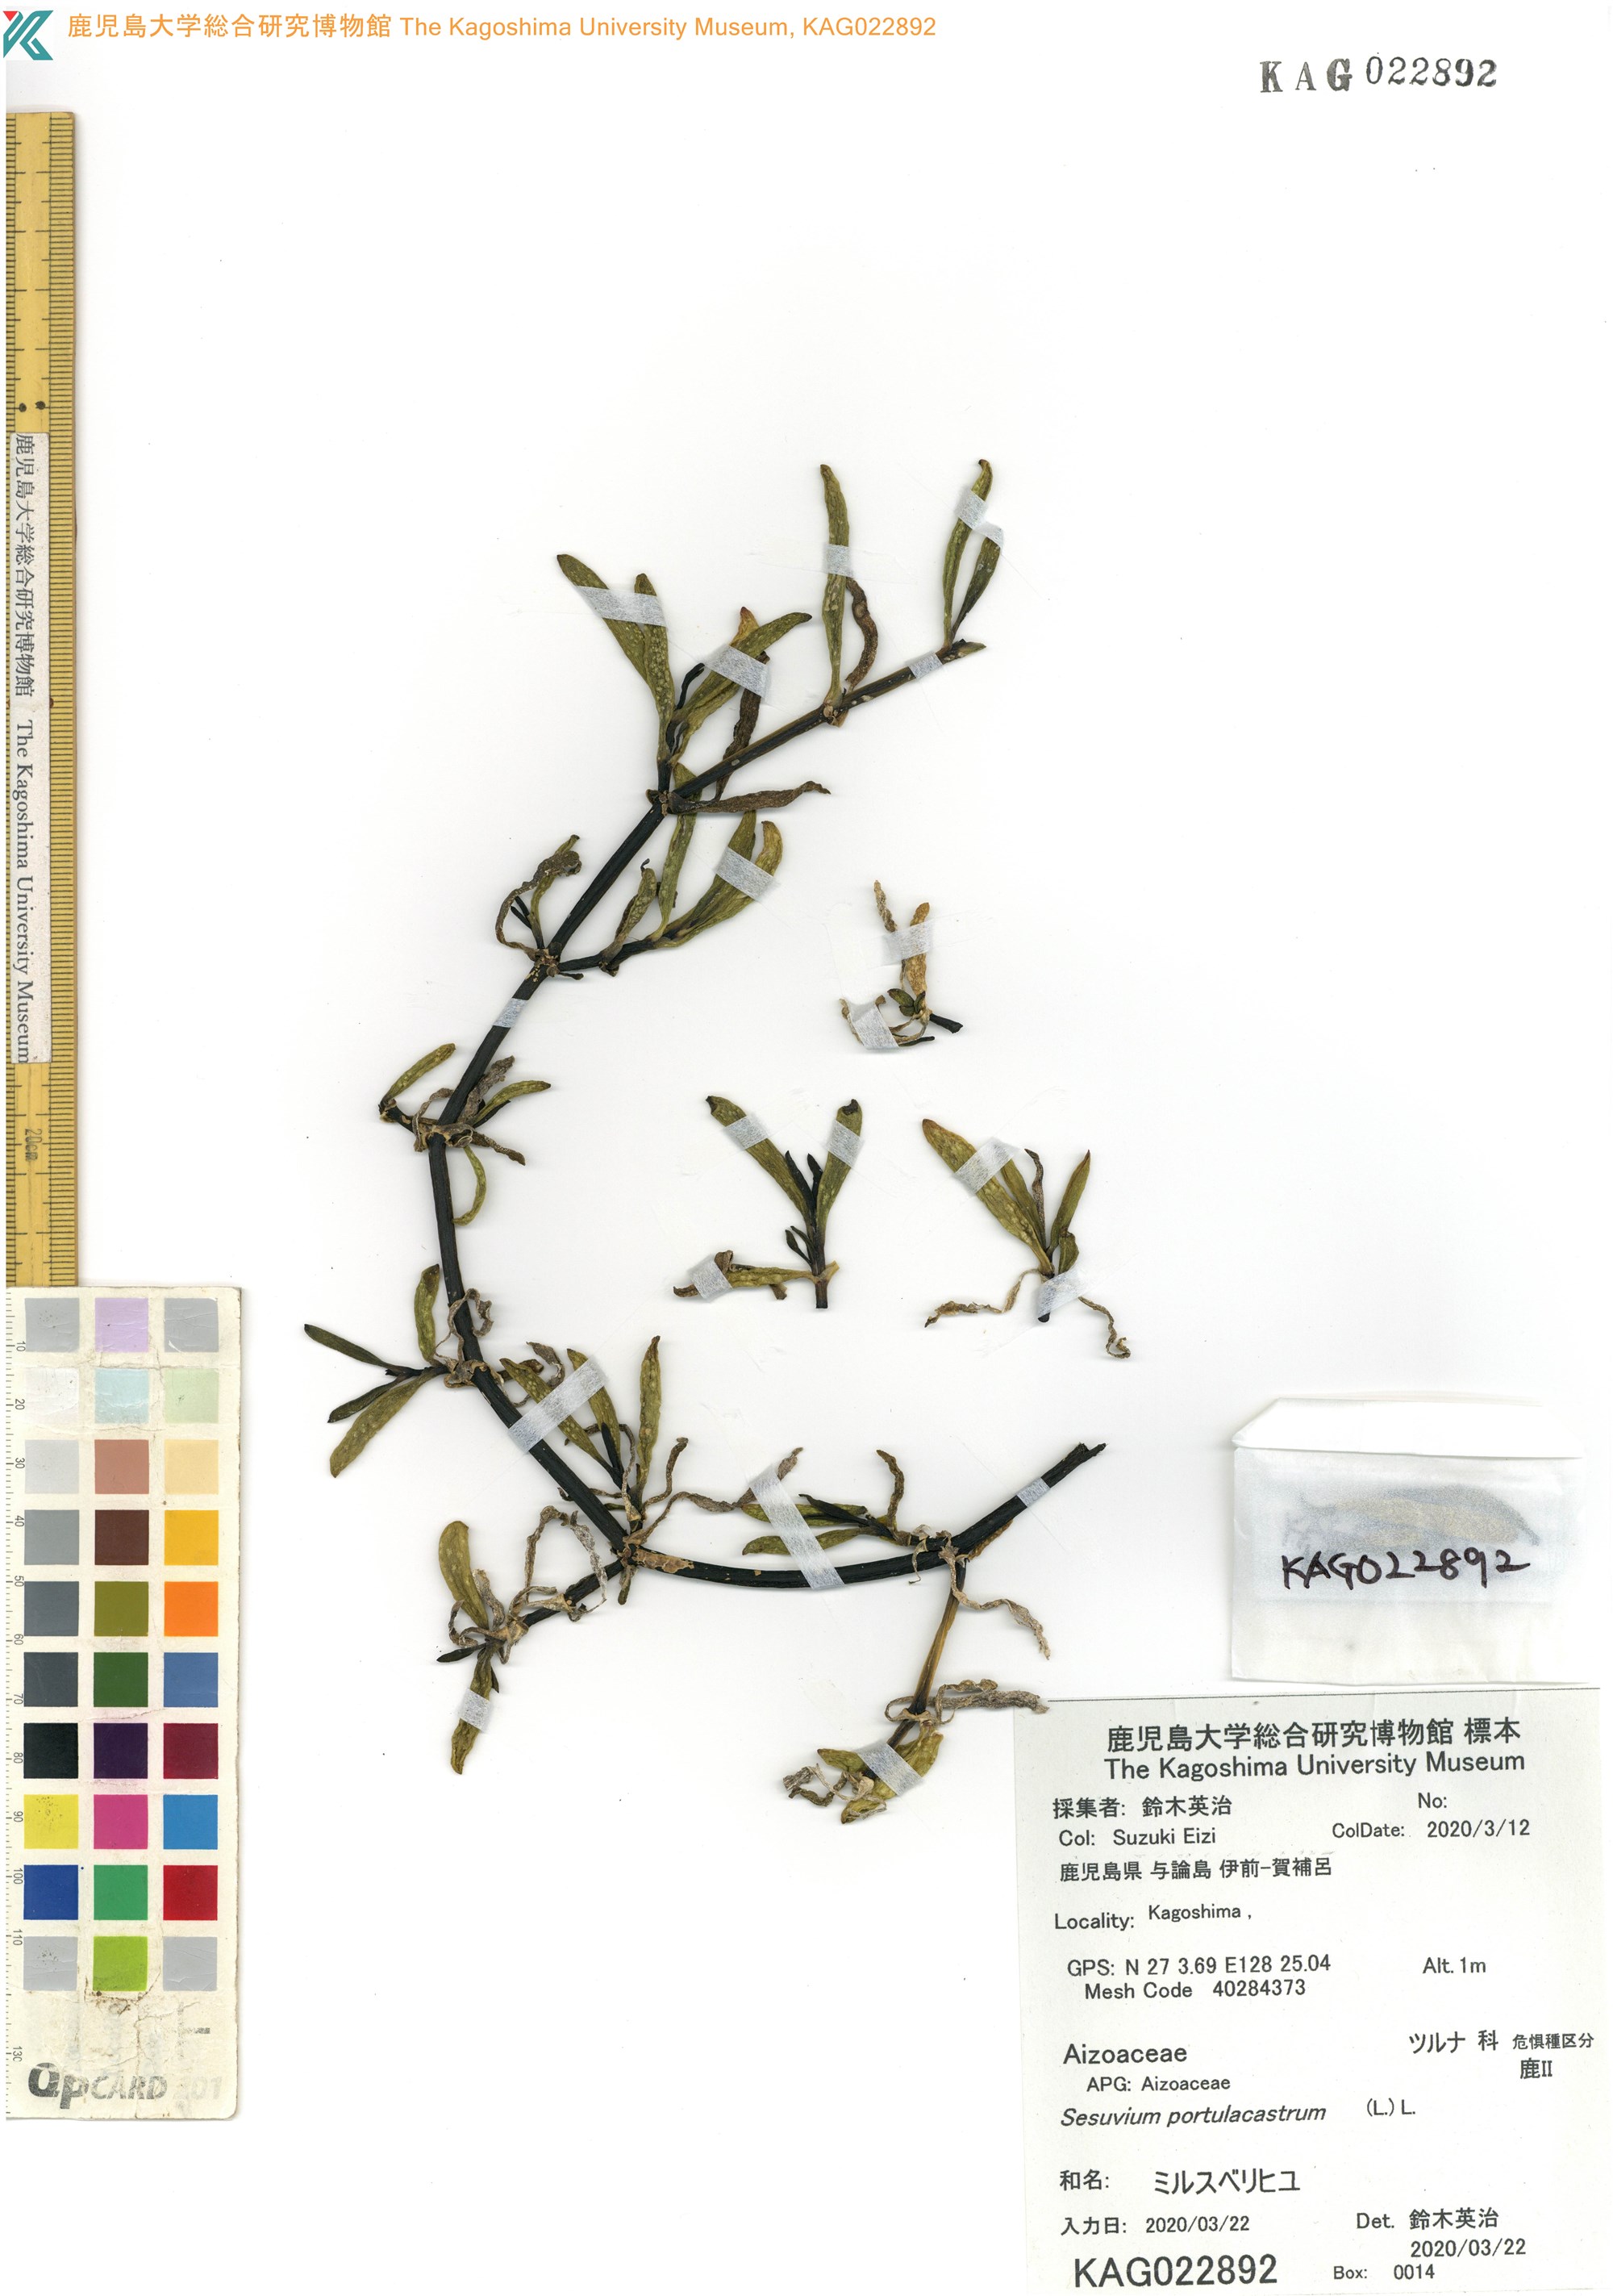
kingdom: Plantae
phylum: Tracheophyta
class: Magnoliopsida
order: Caryophyllales
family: Aizoaceae
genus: Sesuvium
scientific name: Sesuvium portulacastrum
